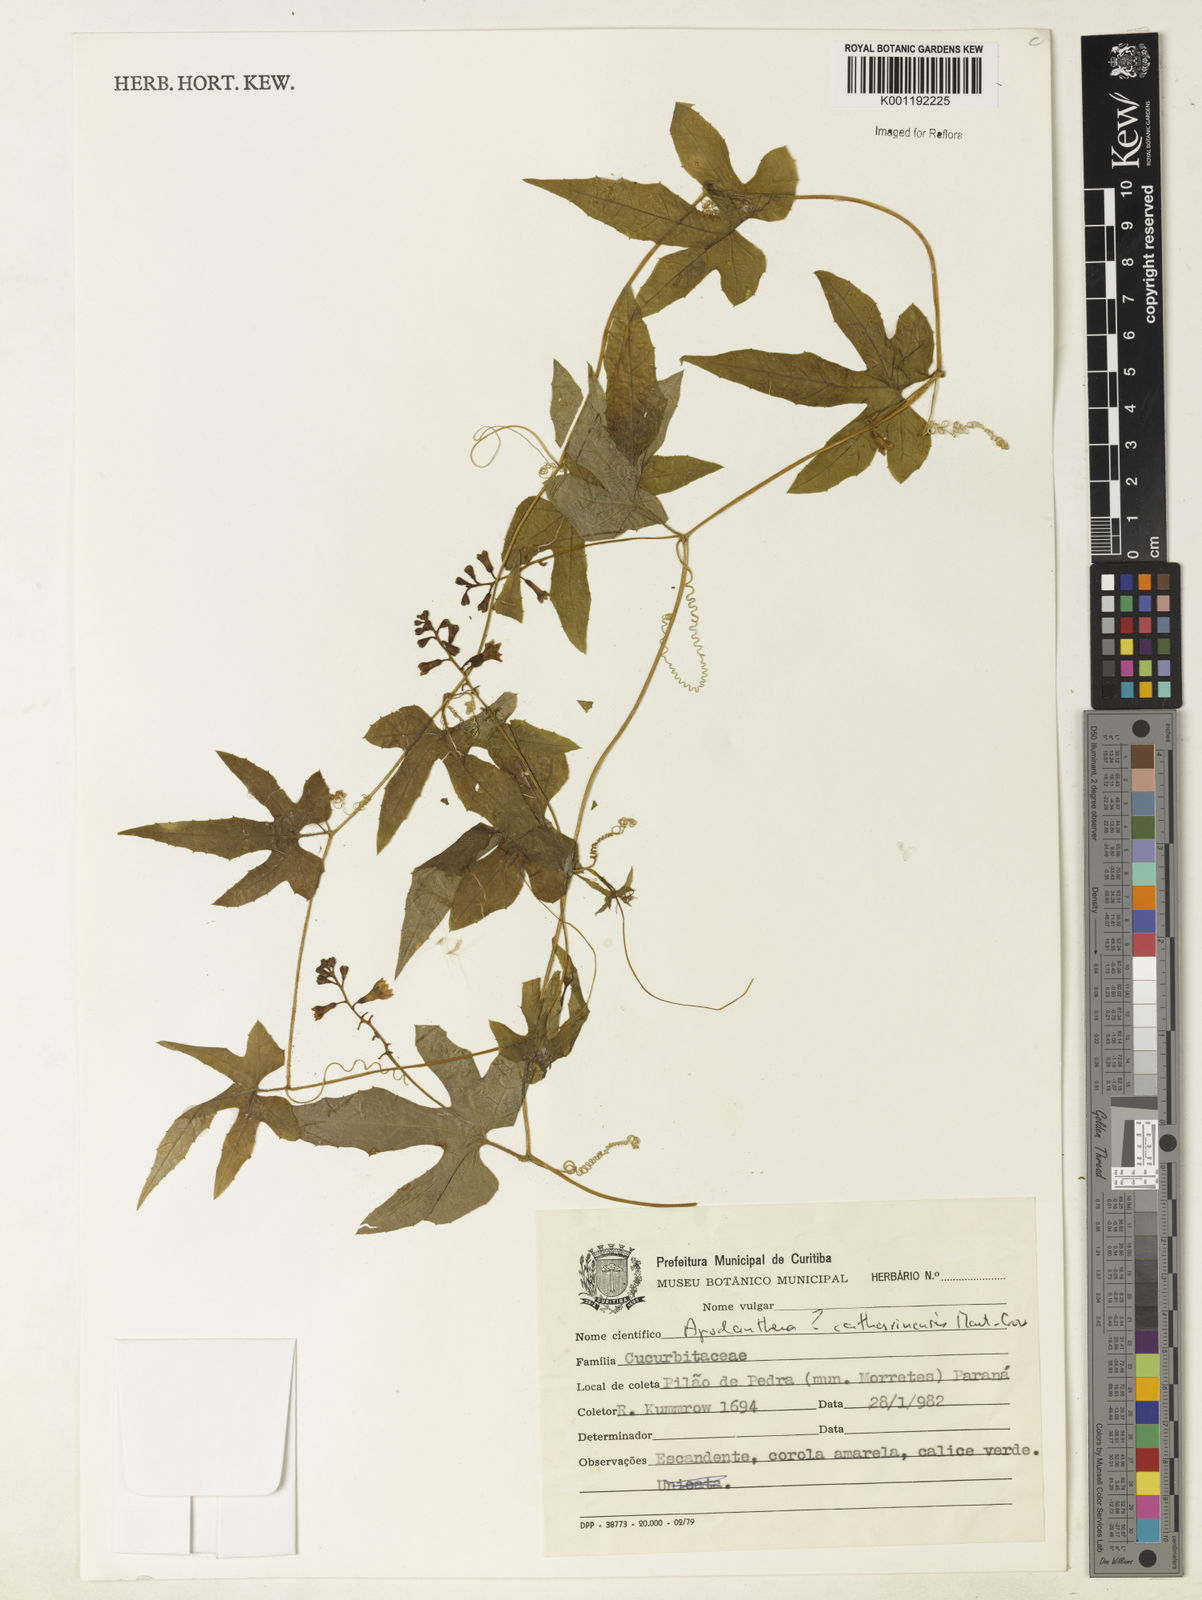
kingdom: Plantae
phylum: Tracheophyta
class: Magnoliopsida
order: Cucurbitales
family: Cucurbitaceae
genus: Apodanthera
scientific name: Apodanthera catharinensis
